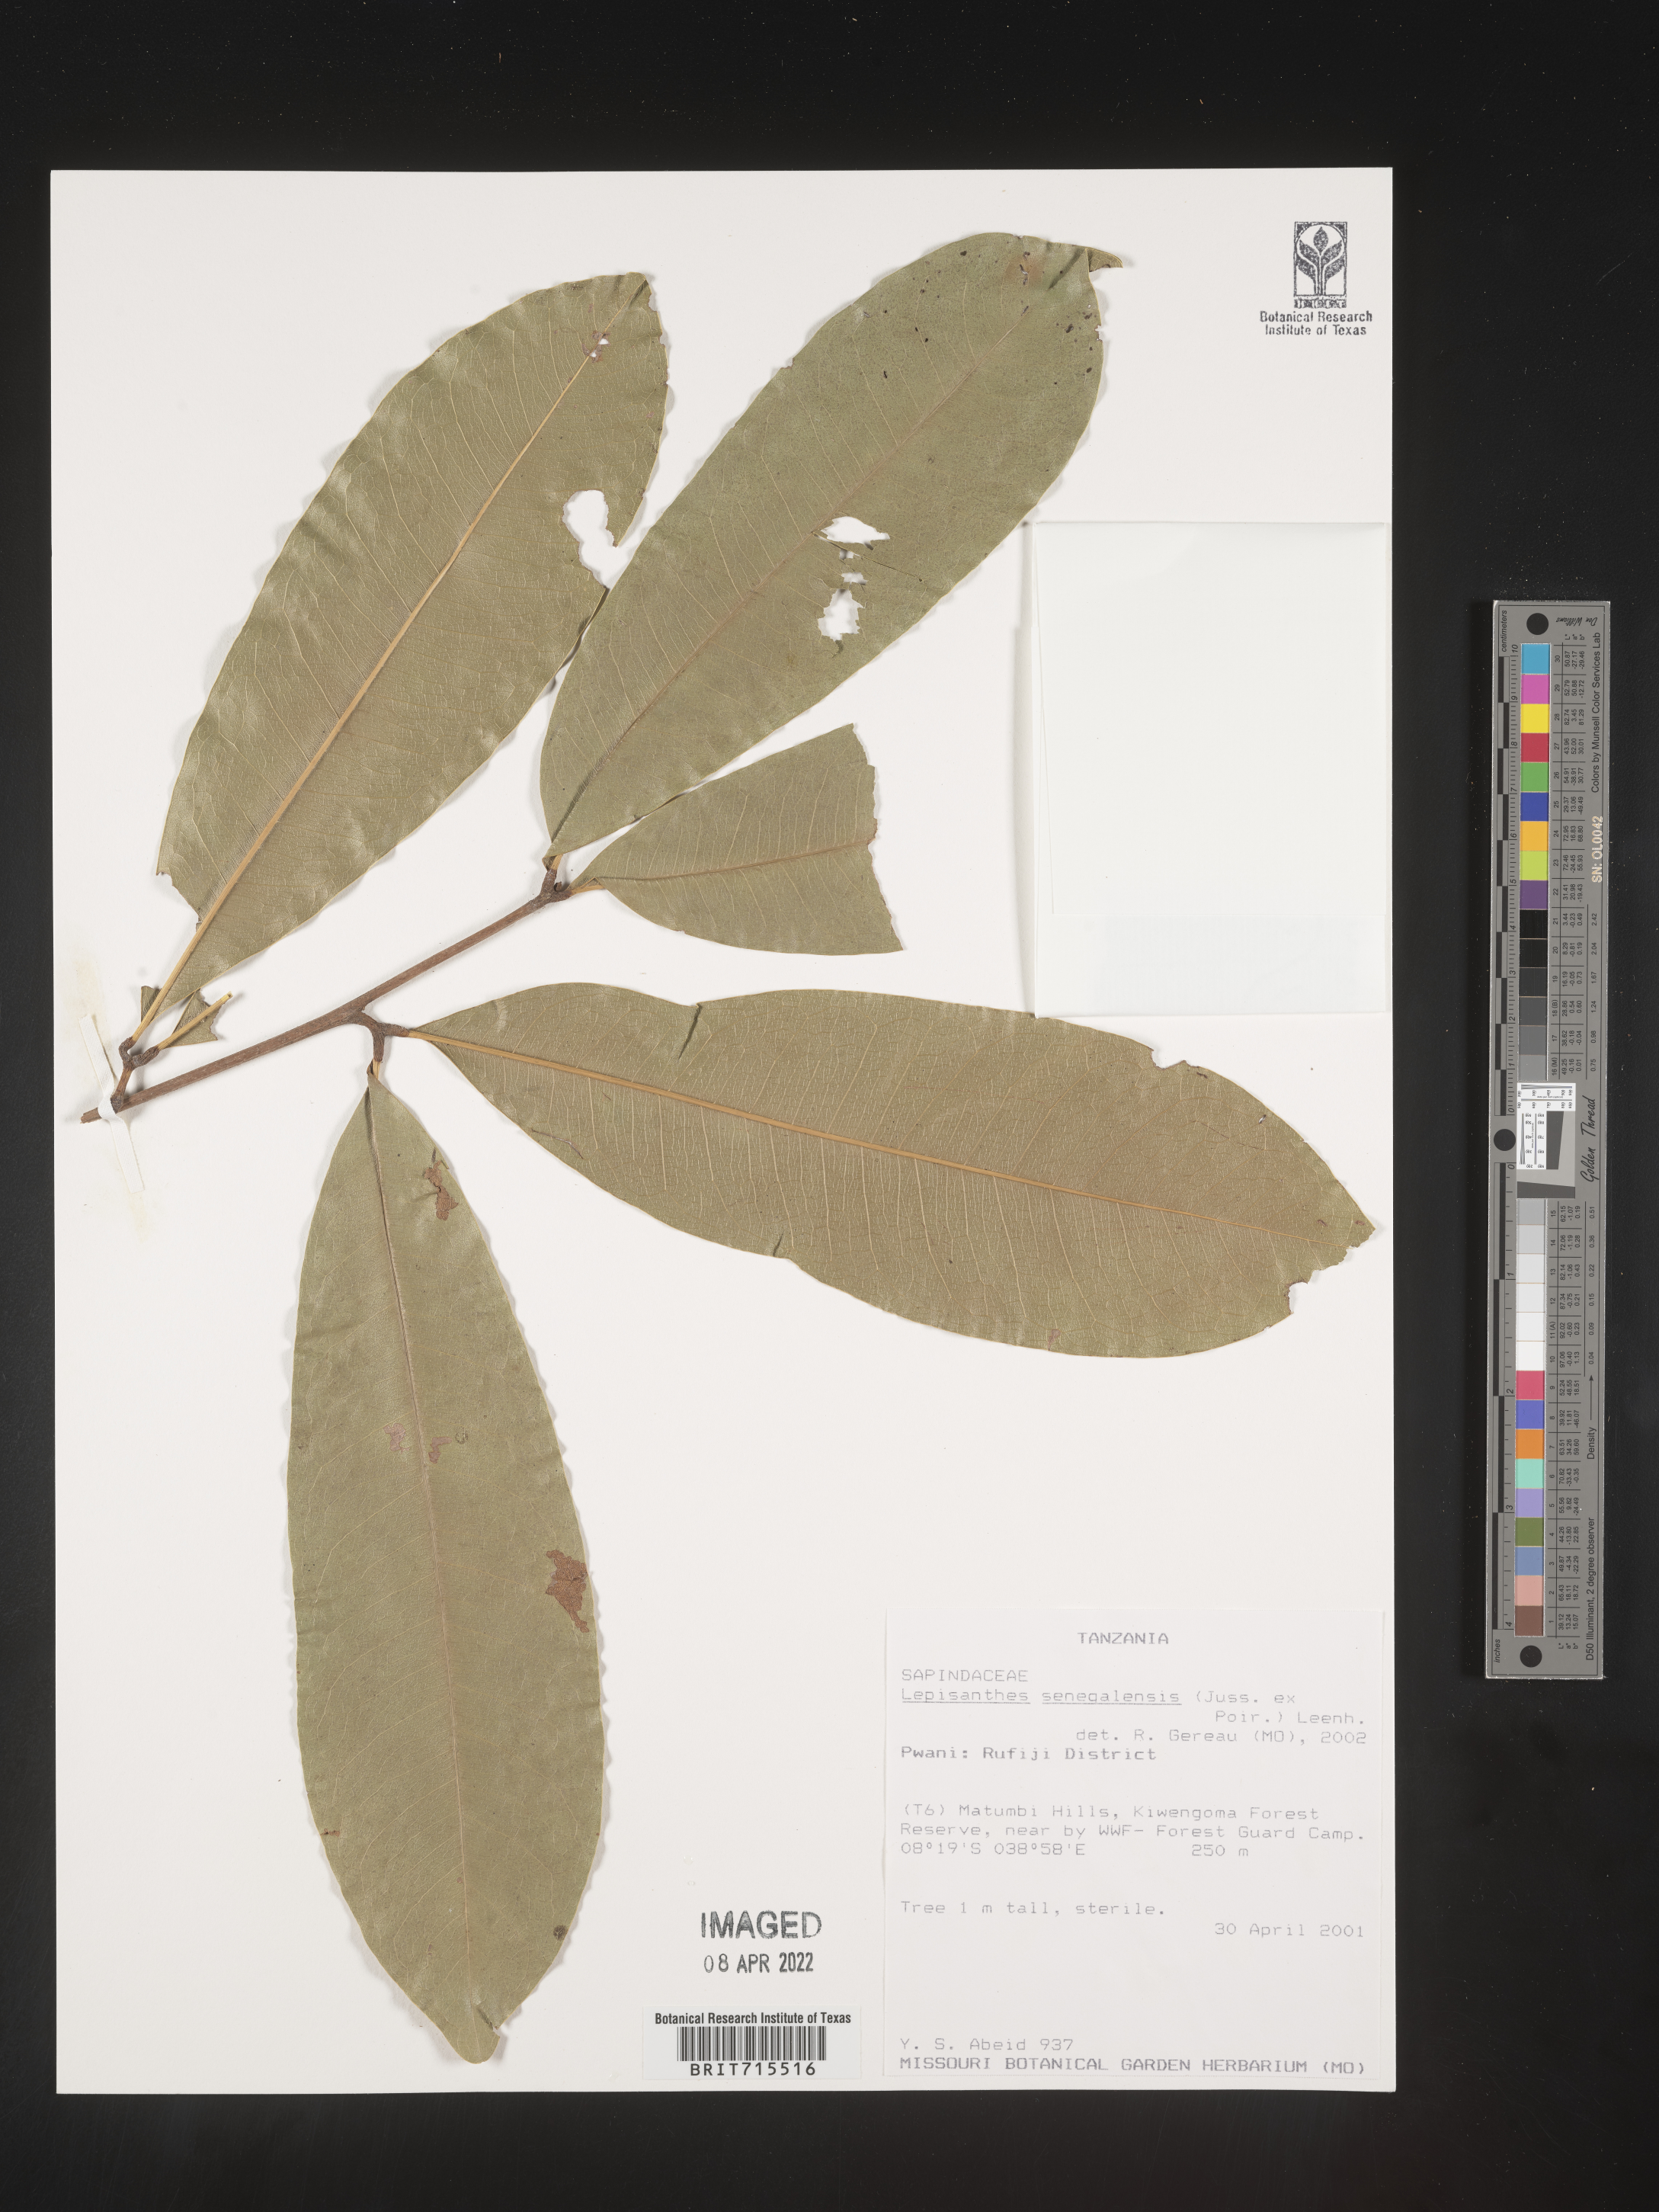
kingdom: Plantae
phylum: Tracheophyta
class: Magnoliopsida
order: Sapindales
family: Sapindaceae
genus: Lepisanthes
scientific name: Lepisanthes
